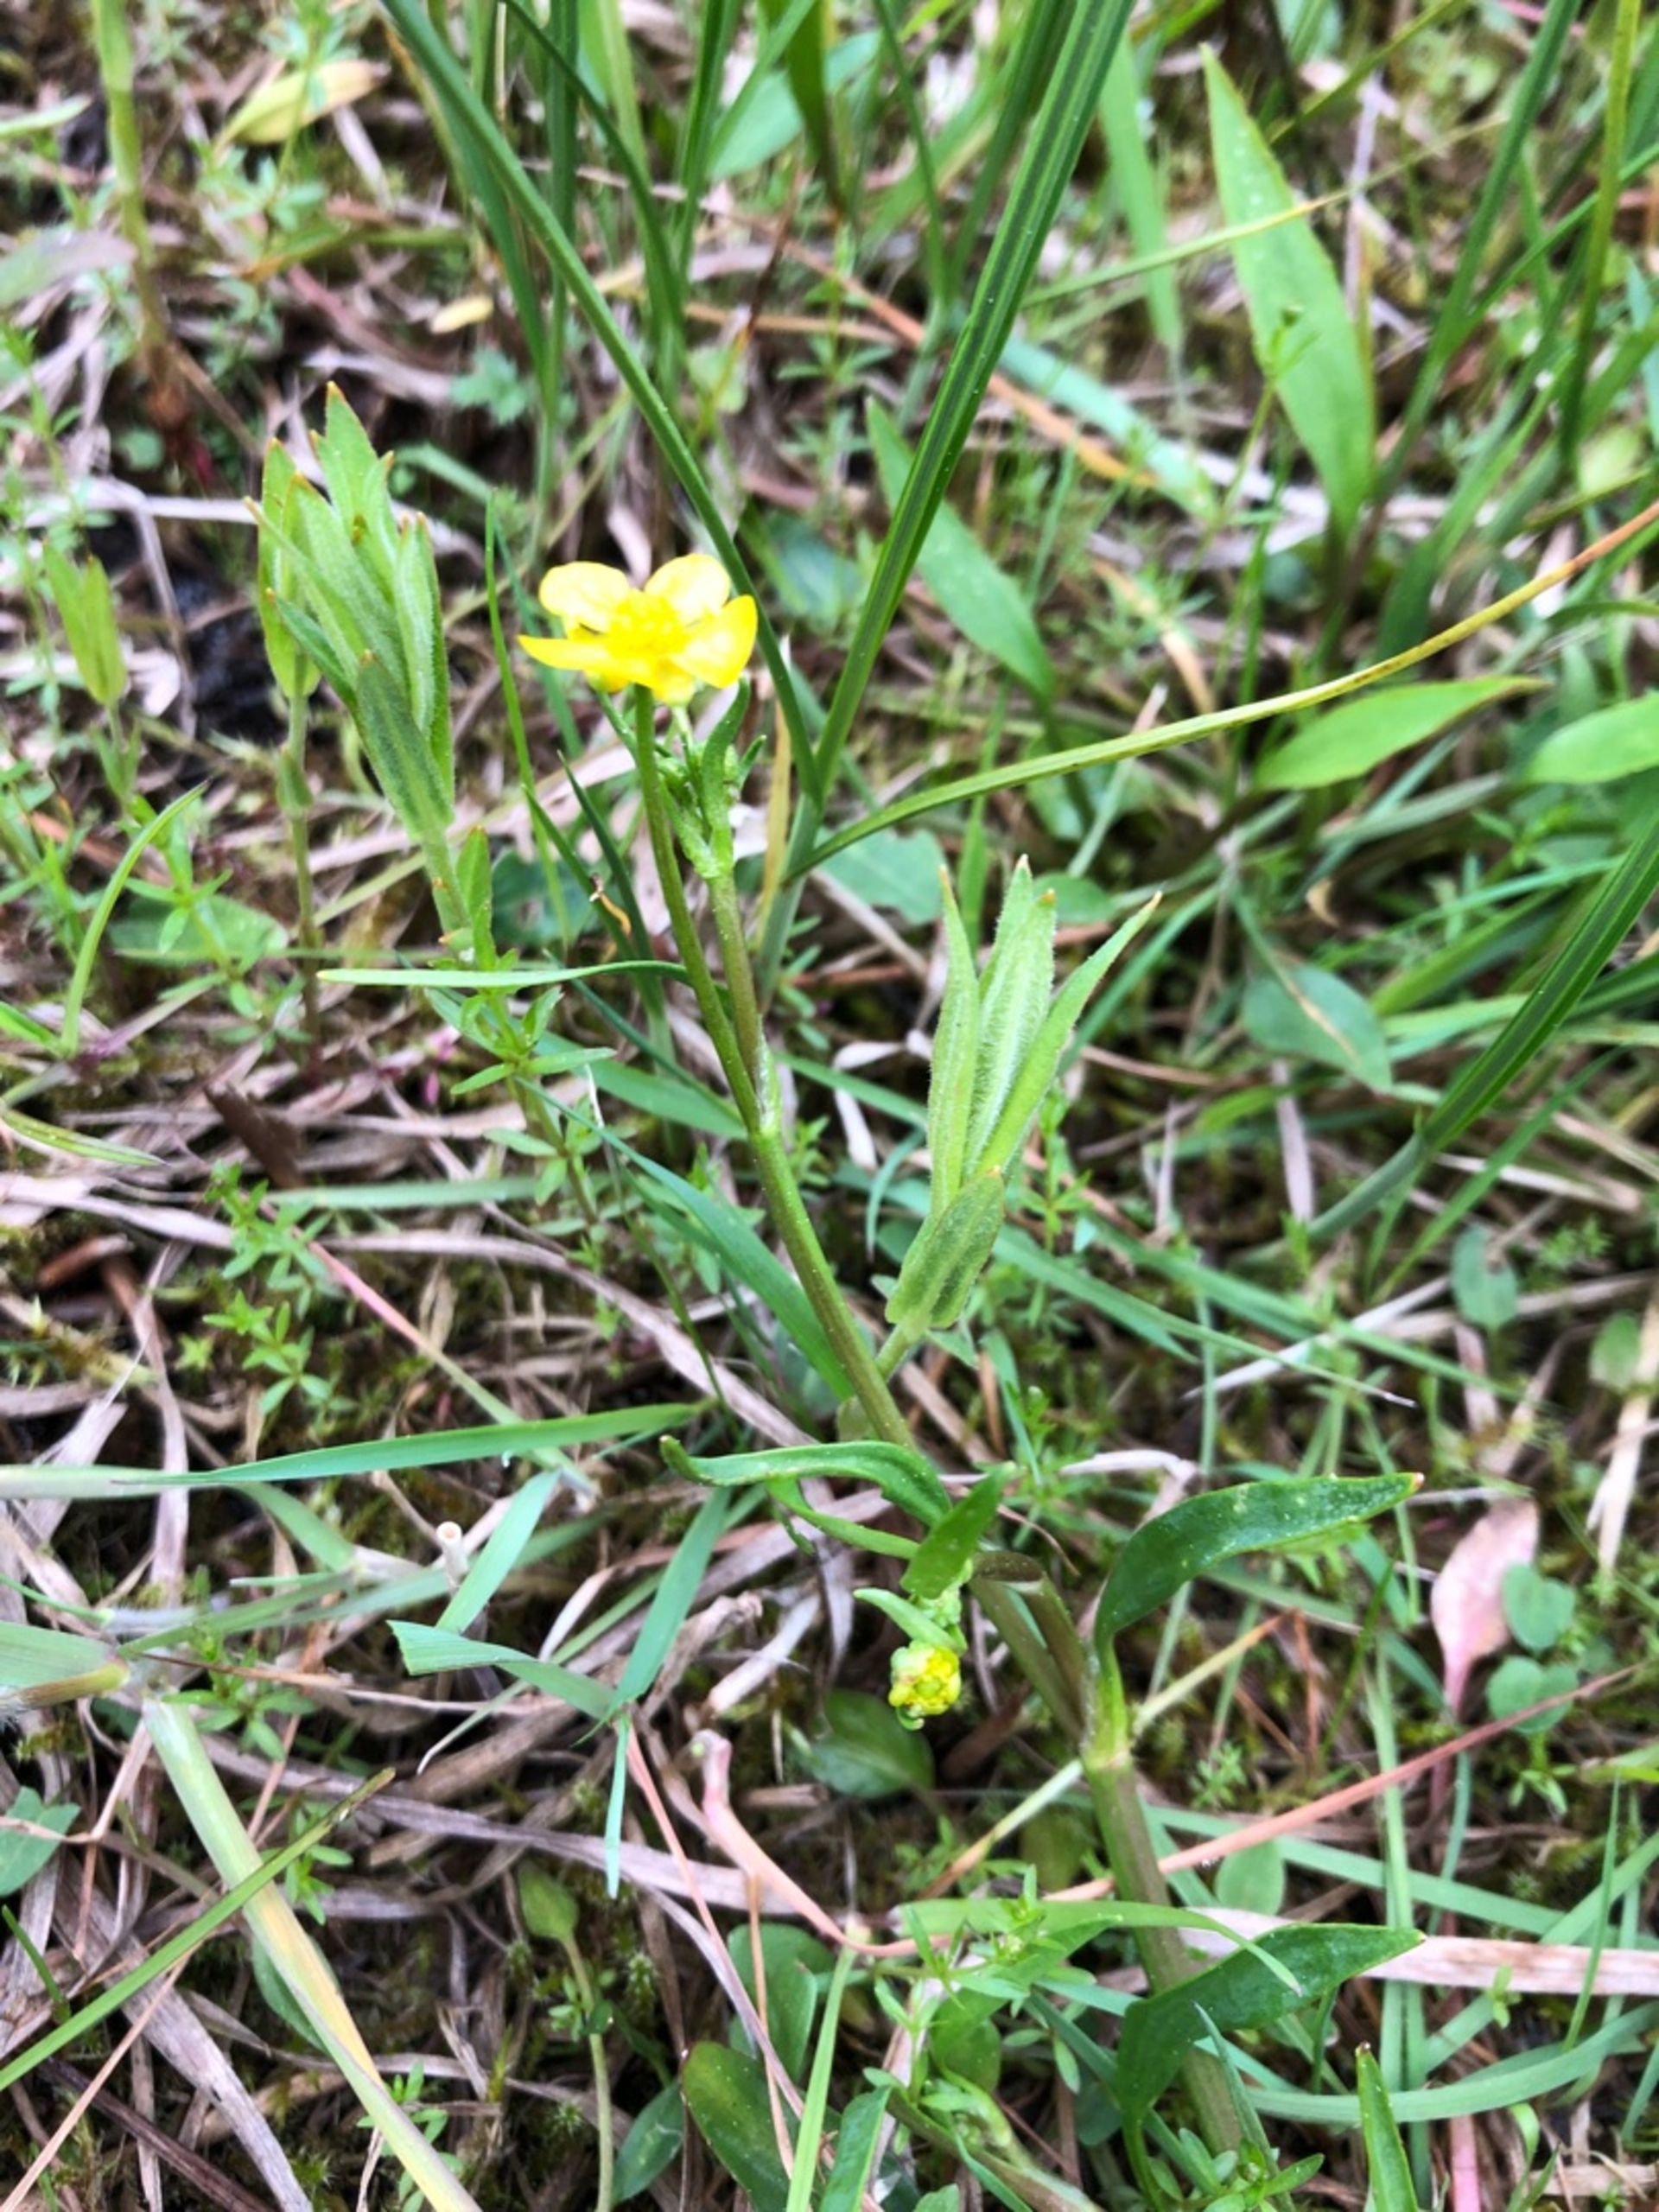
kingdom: Plantae
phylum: Tracheophyta
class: Magnoliopsida
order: Ranunculales
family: Ranunculaceae
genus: Ranunculus
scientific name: Ranunculus flammula
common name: Kær-ranunkel
